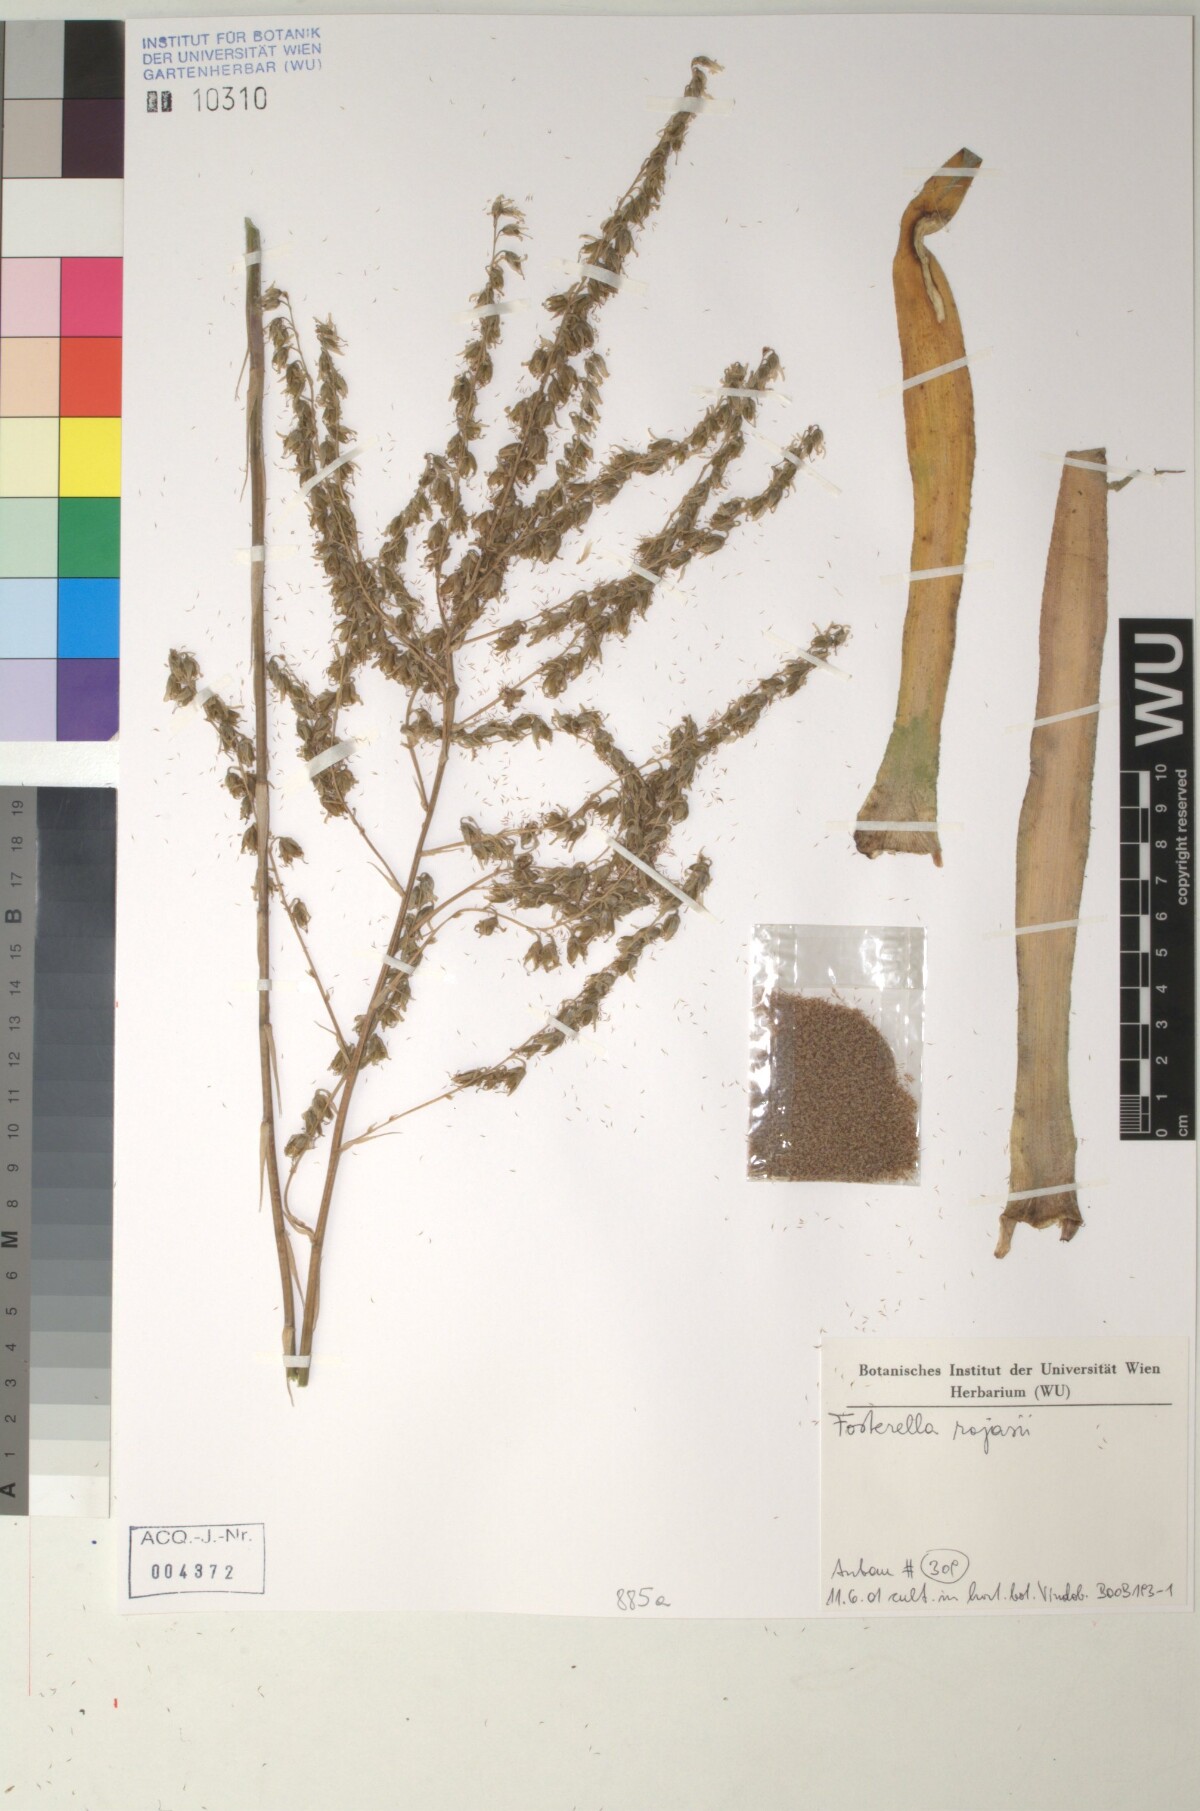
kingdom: Plantae
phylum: Tracheophyta
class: Liliopsida
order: Poales
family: Bromeliaceae
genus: Fosterella
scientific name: Fosterella penduliflora
